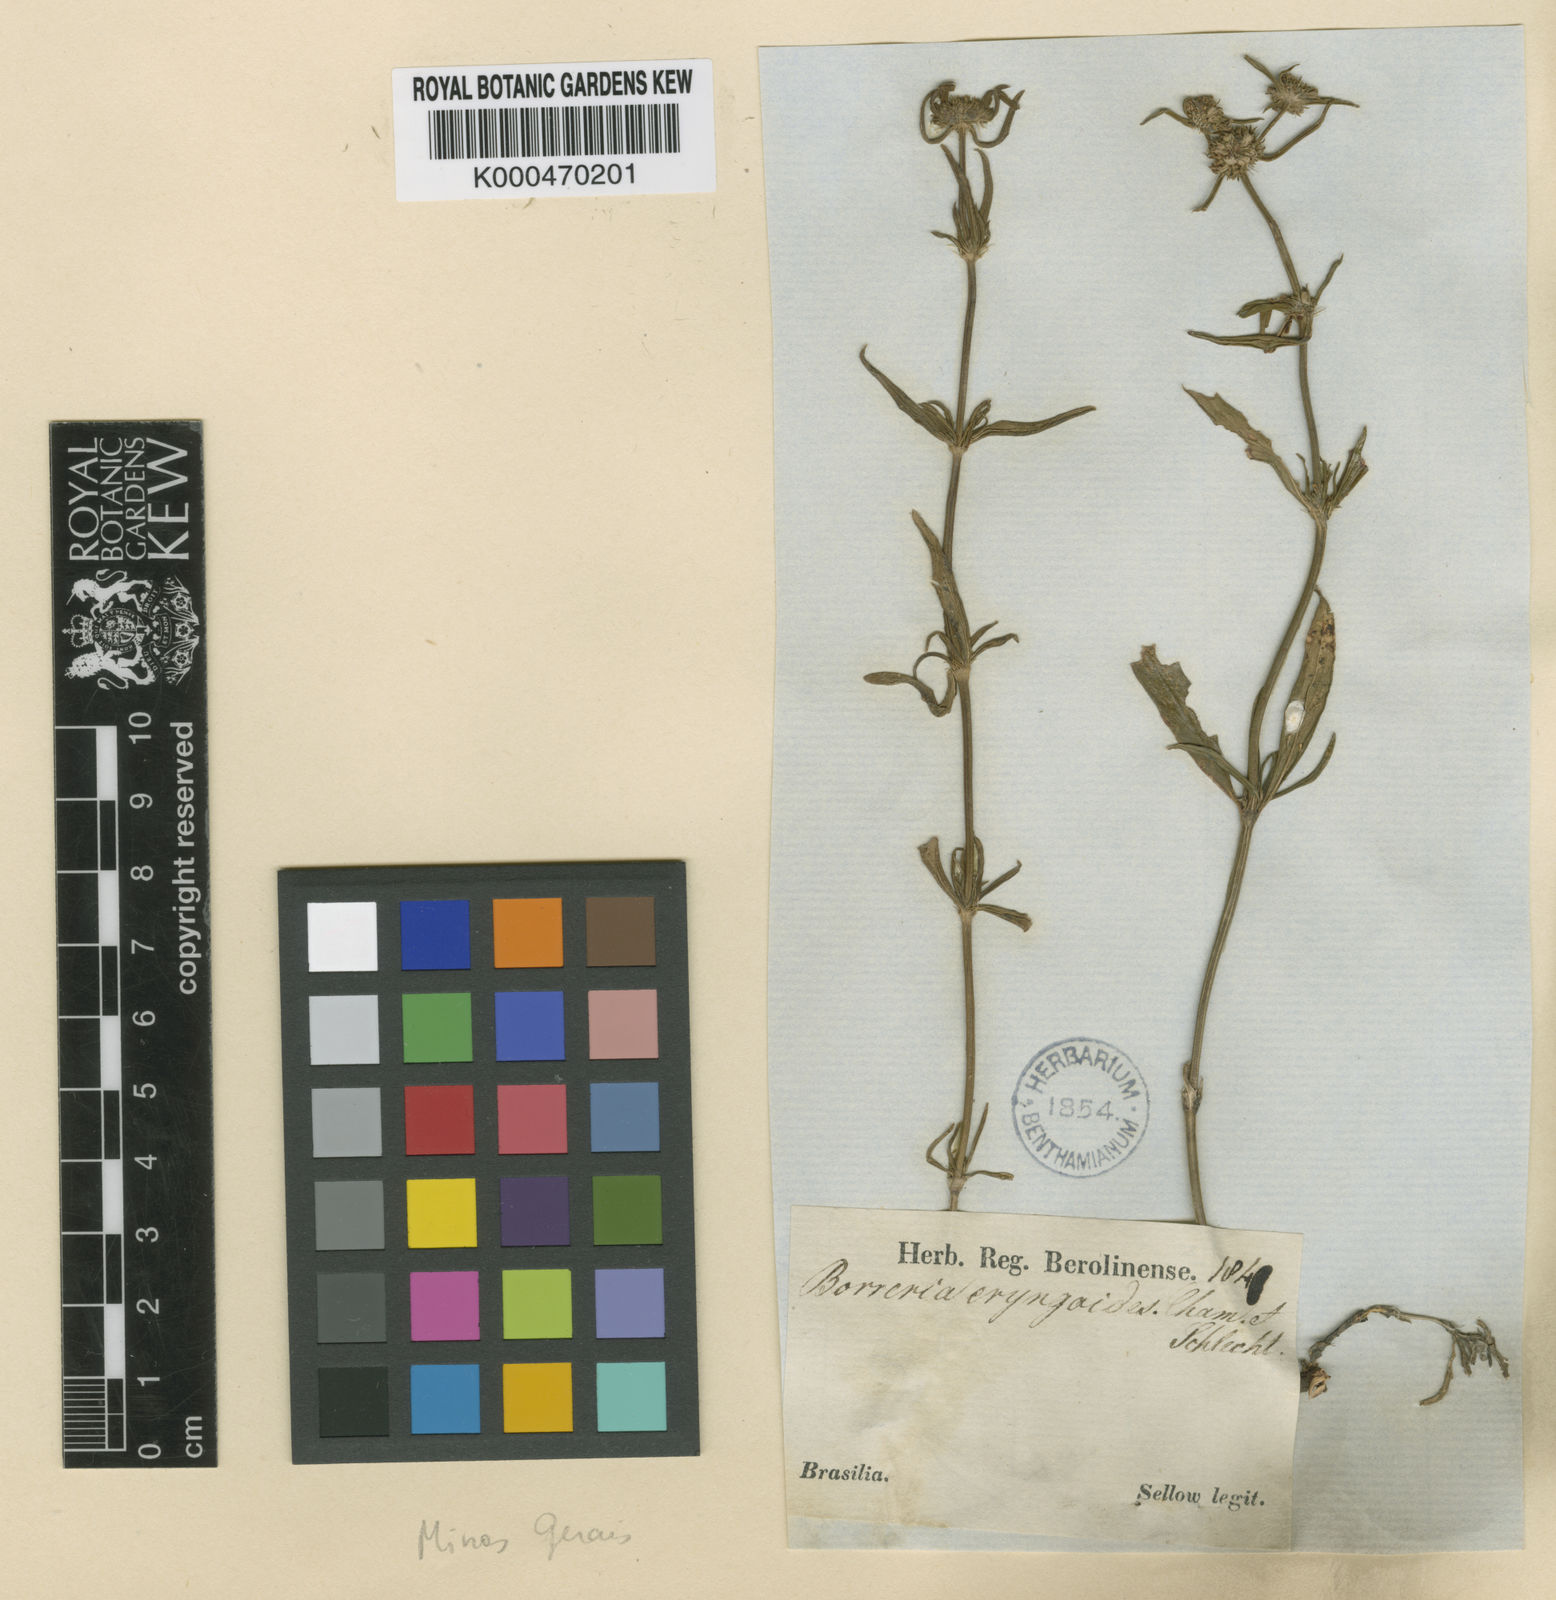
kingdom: Plantae
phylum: Tracheophyta
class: Magnoliopsida
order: Gentianales
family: Rubiaceae
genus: Spermacoce
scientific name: Spermacoce gracillima
